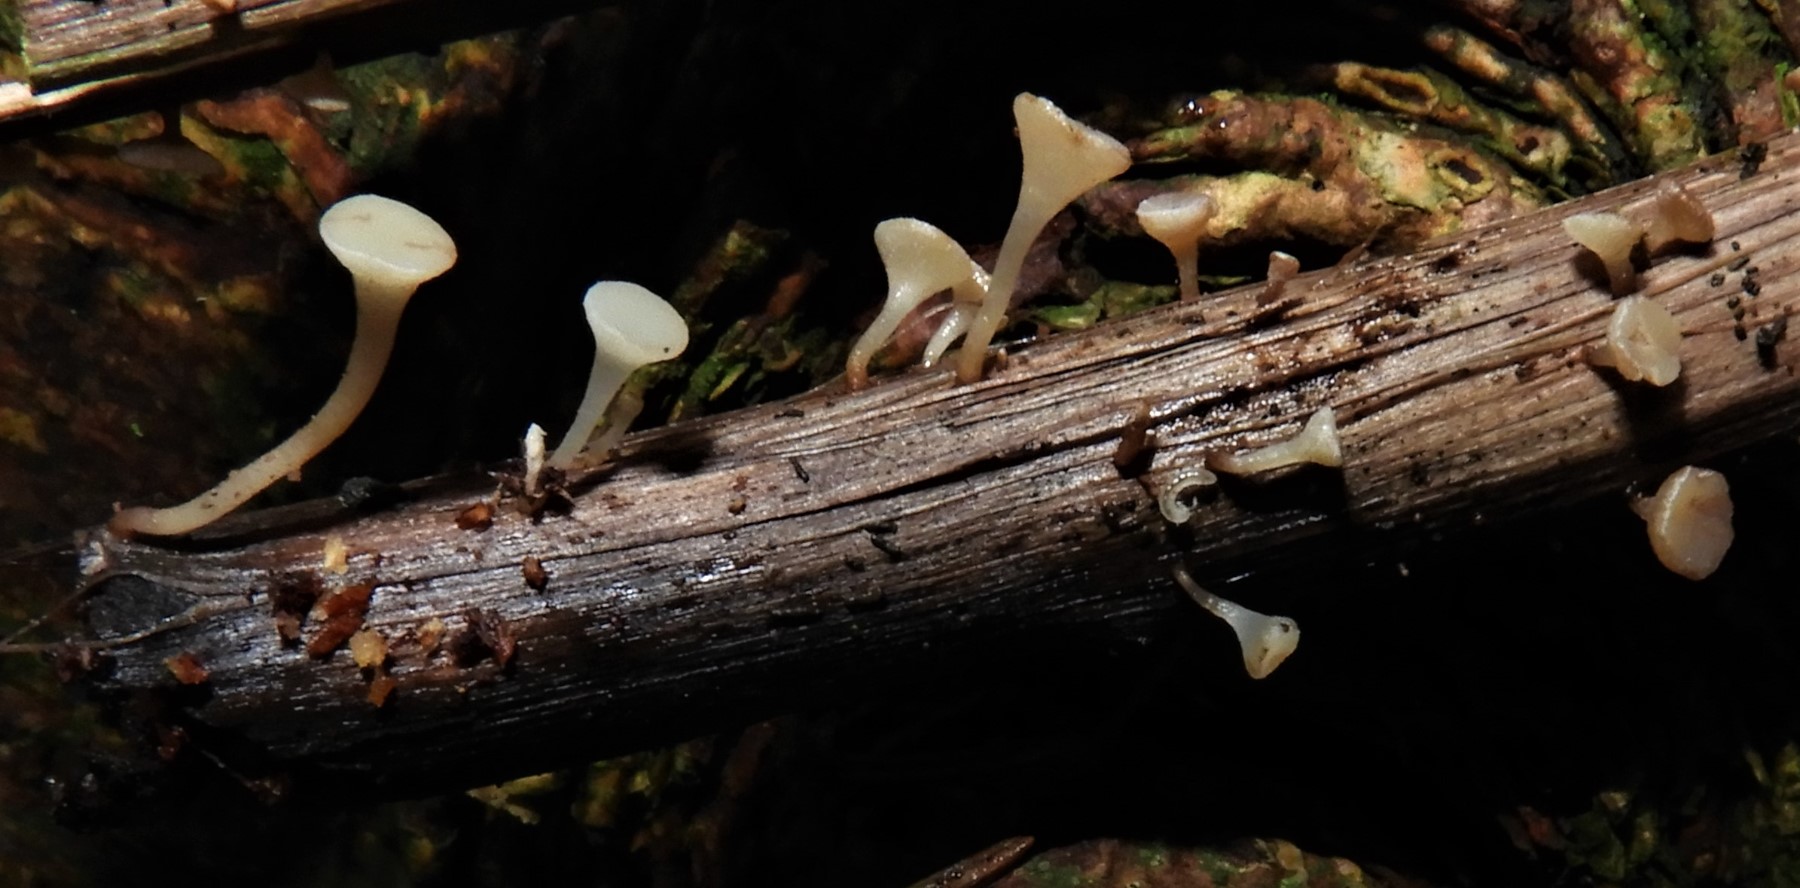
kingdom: Fungi
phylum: Ascomycota
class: Leotiomycetes
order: Helotiales
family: Helotiaceae
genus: Hymenoscyphus
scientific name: Hymenoscyphus scutula
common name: almindelig stilkskive
